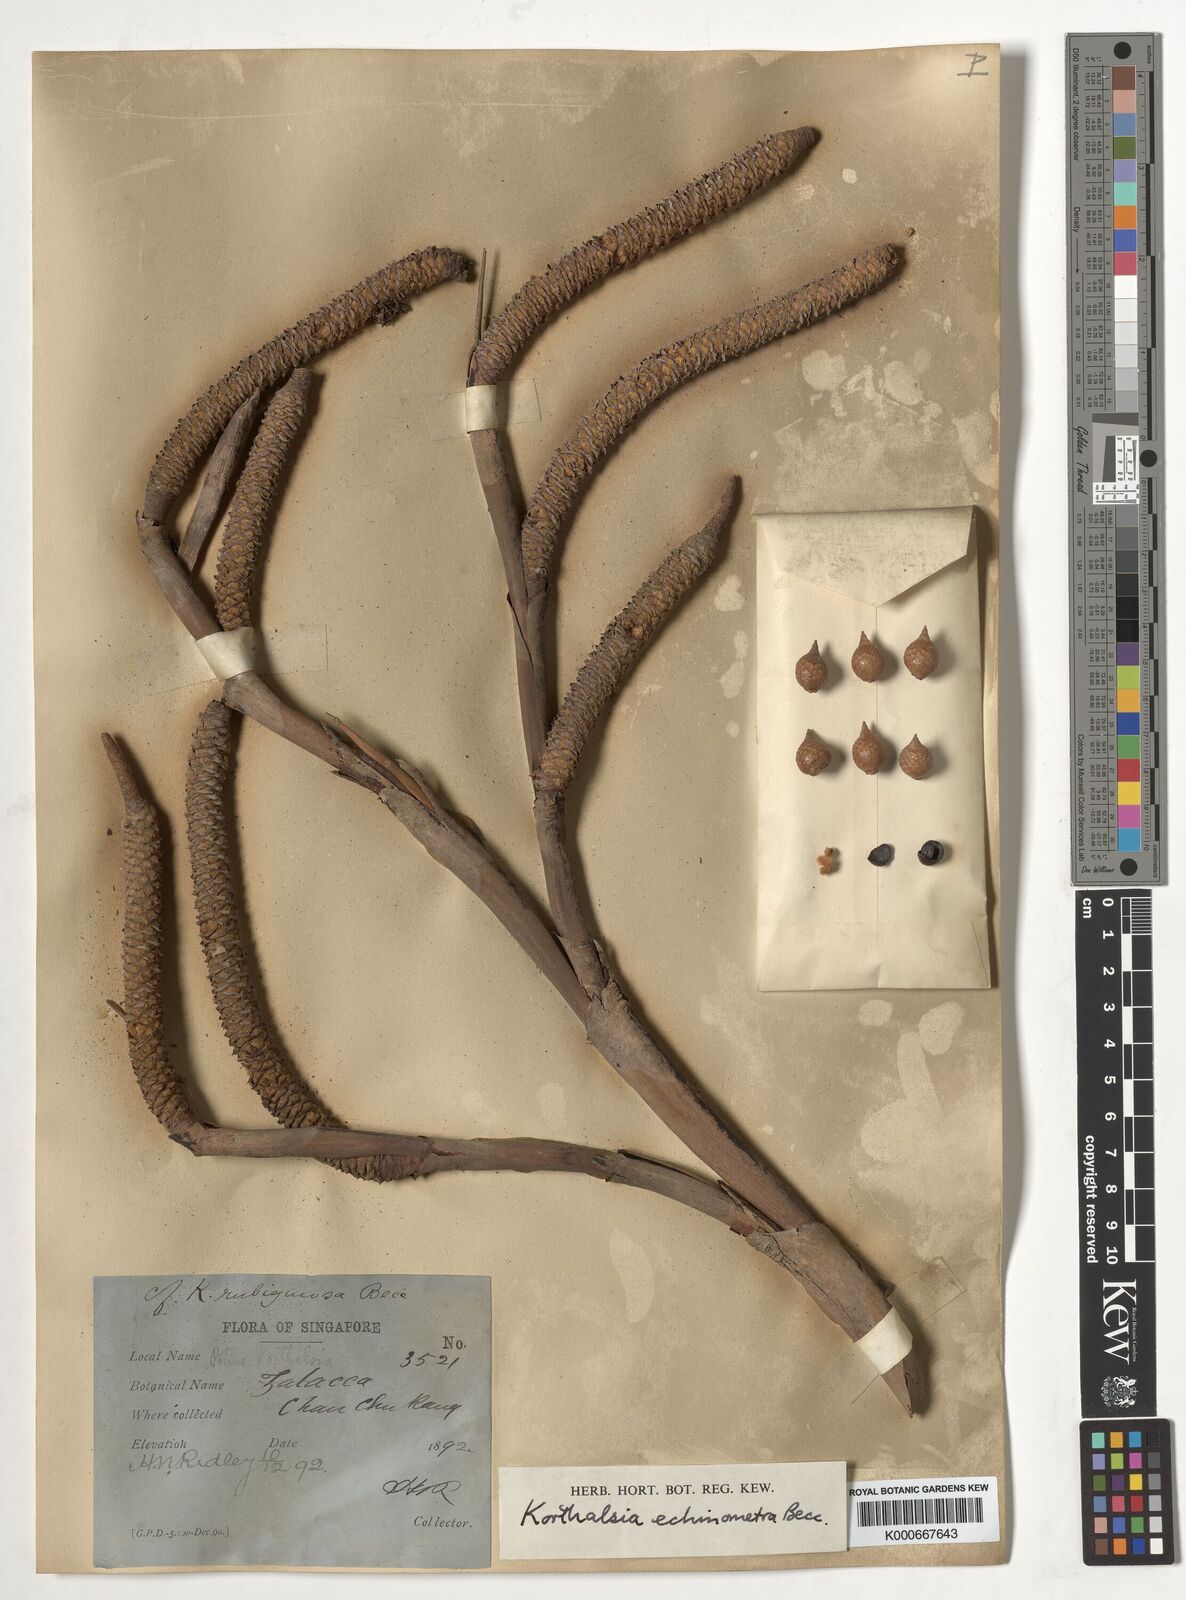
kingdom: Plantae
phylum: Tracheophyta
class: Liliopsida
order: Arecales
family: Arecaceae
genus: Korthalsia
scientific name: Korthalsia echinometra
